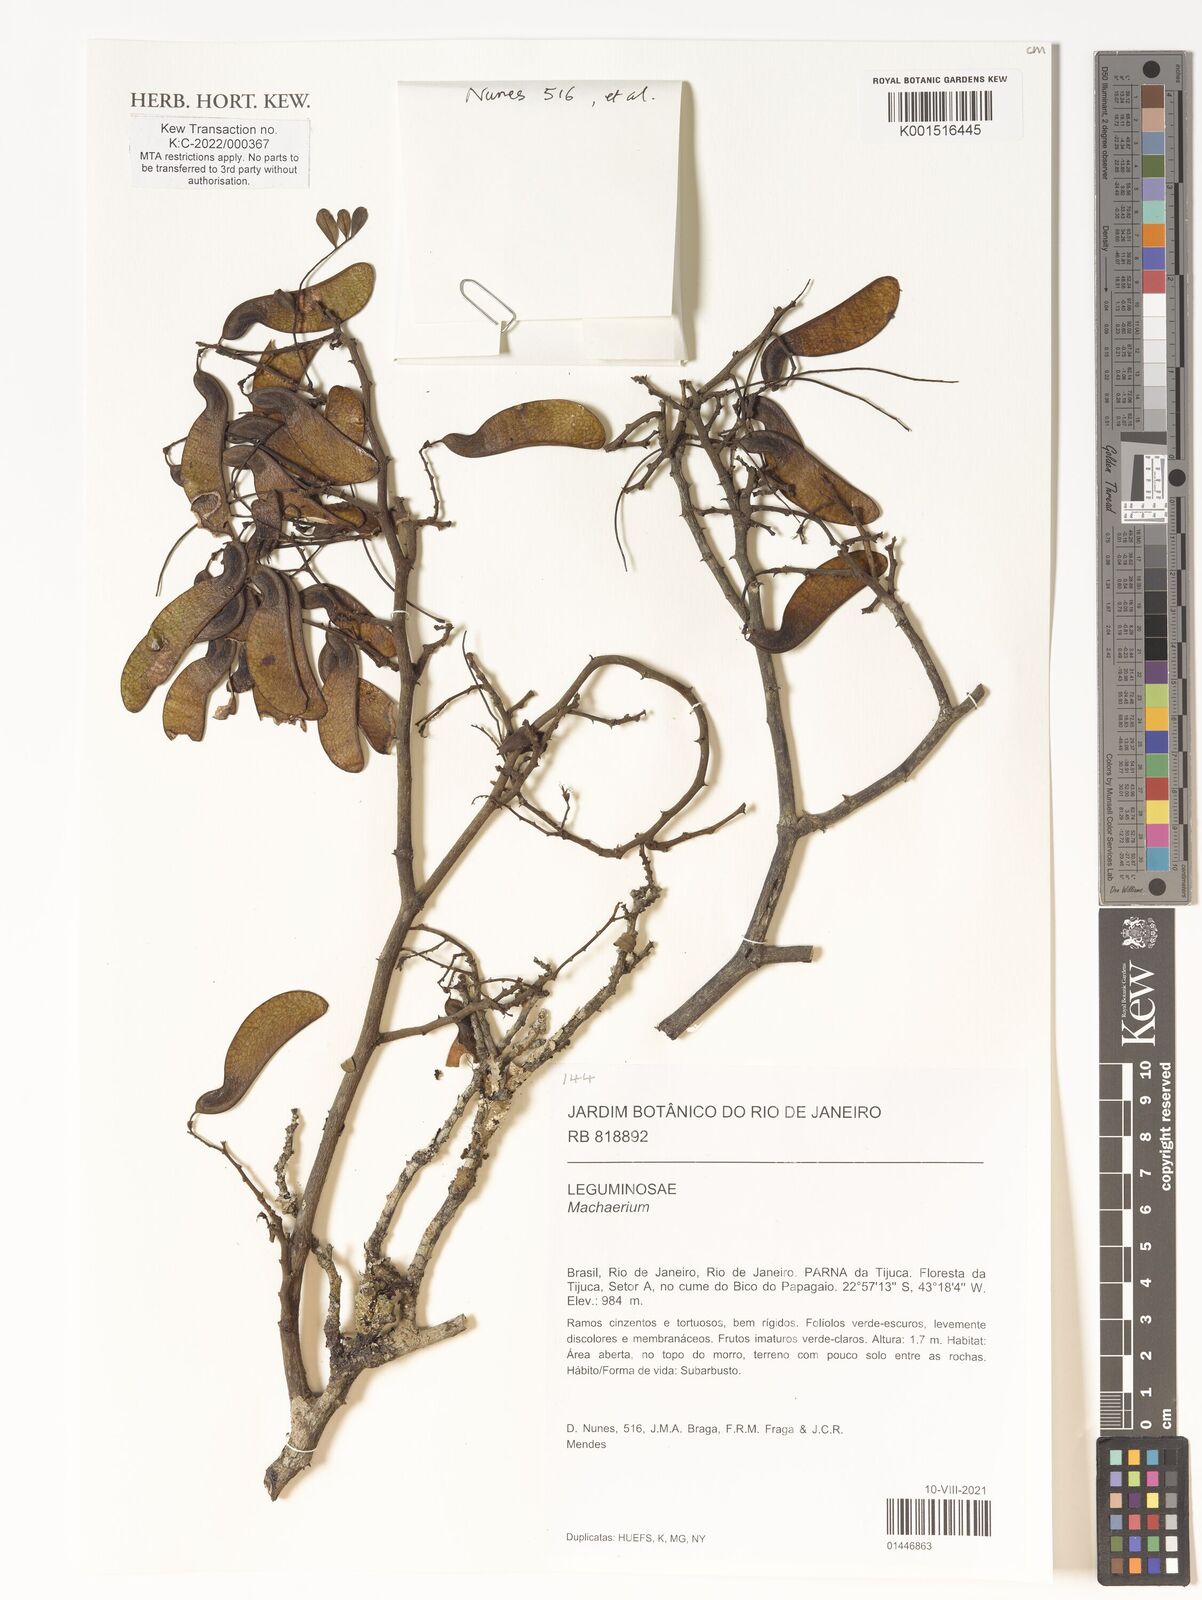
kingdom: Plantae
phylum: Tracheophyta
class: Magnoliopsida
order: Fabales
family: Fabaceae
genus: Machaerium
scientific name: Machaerium
